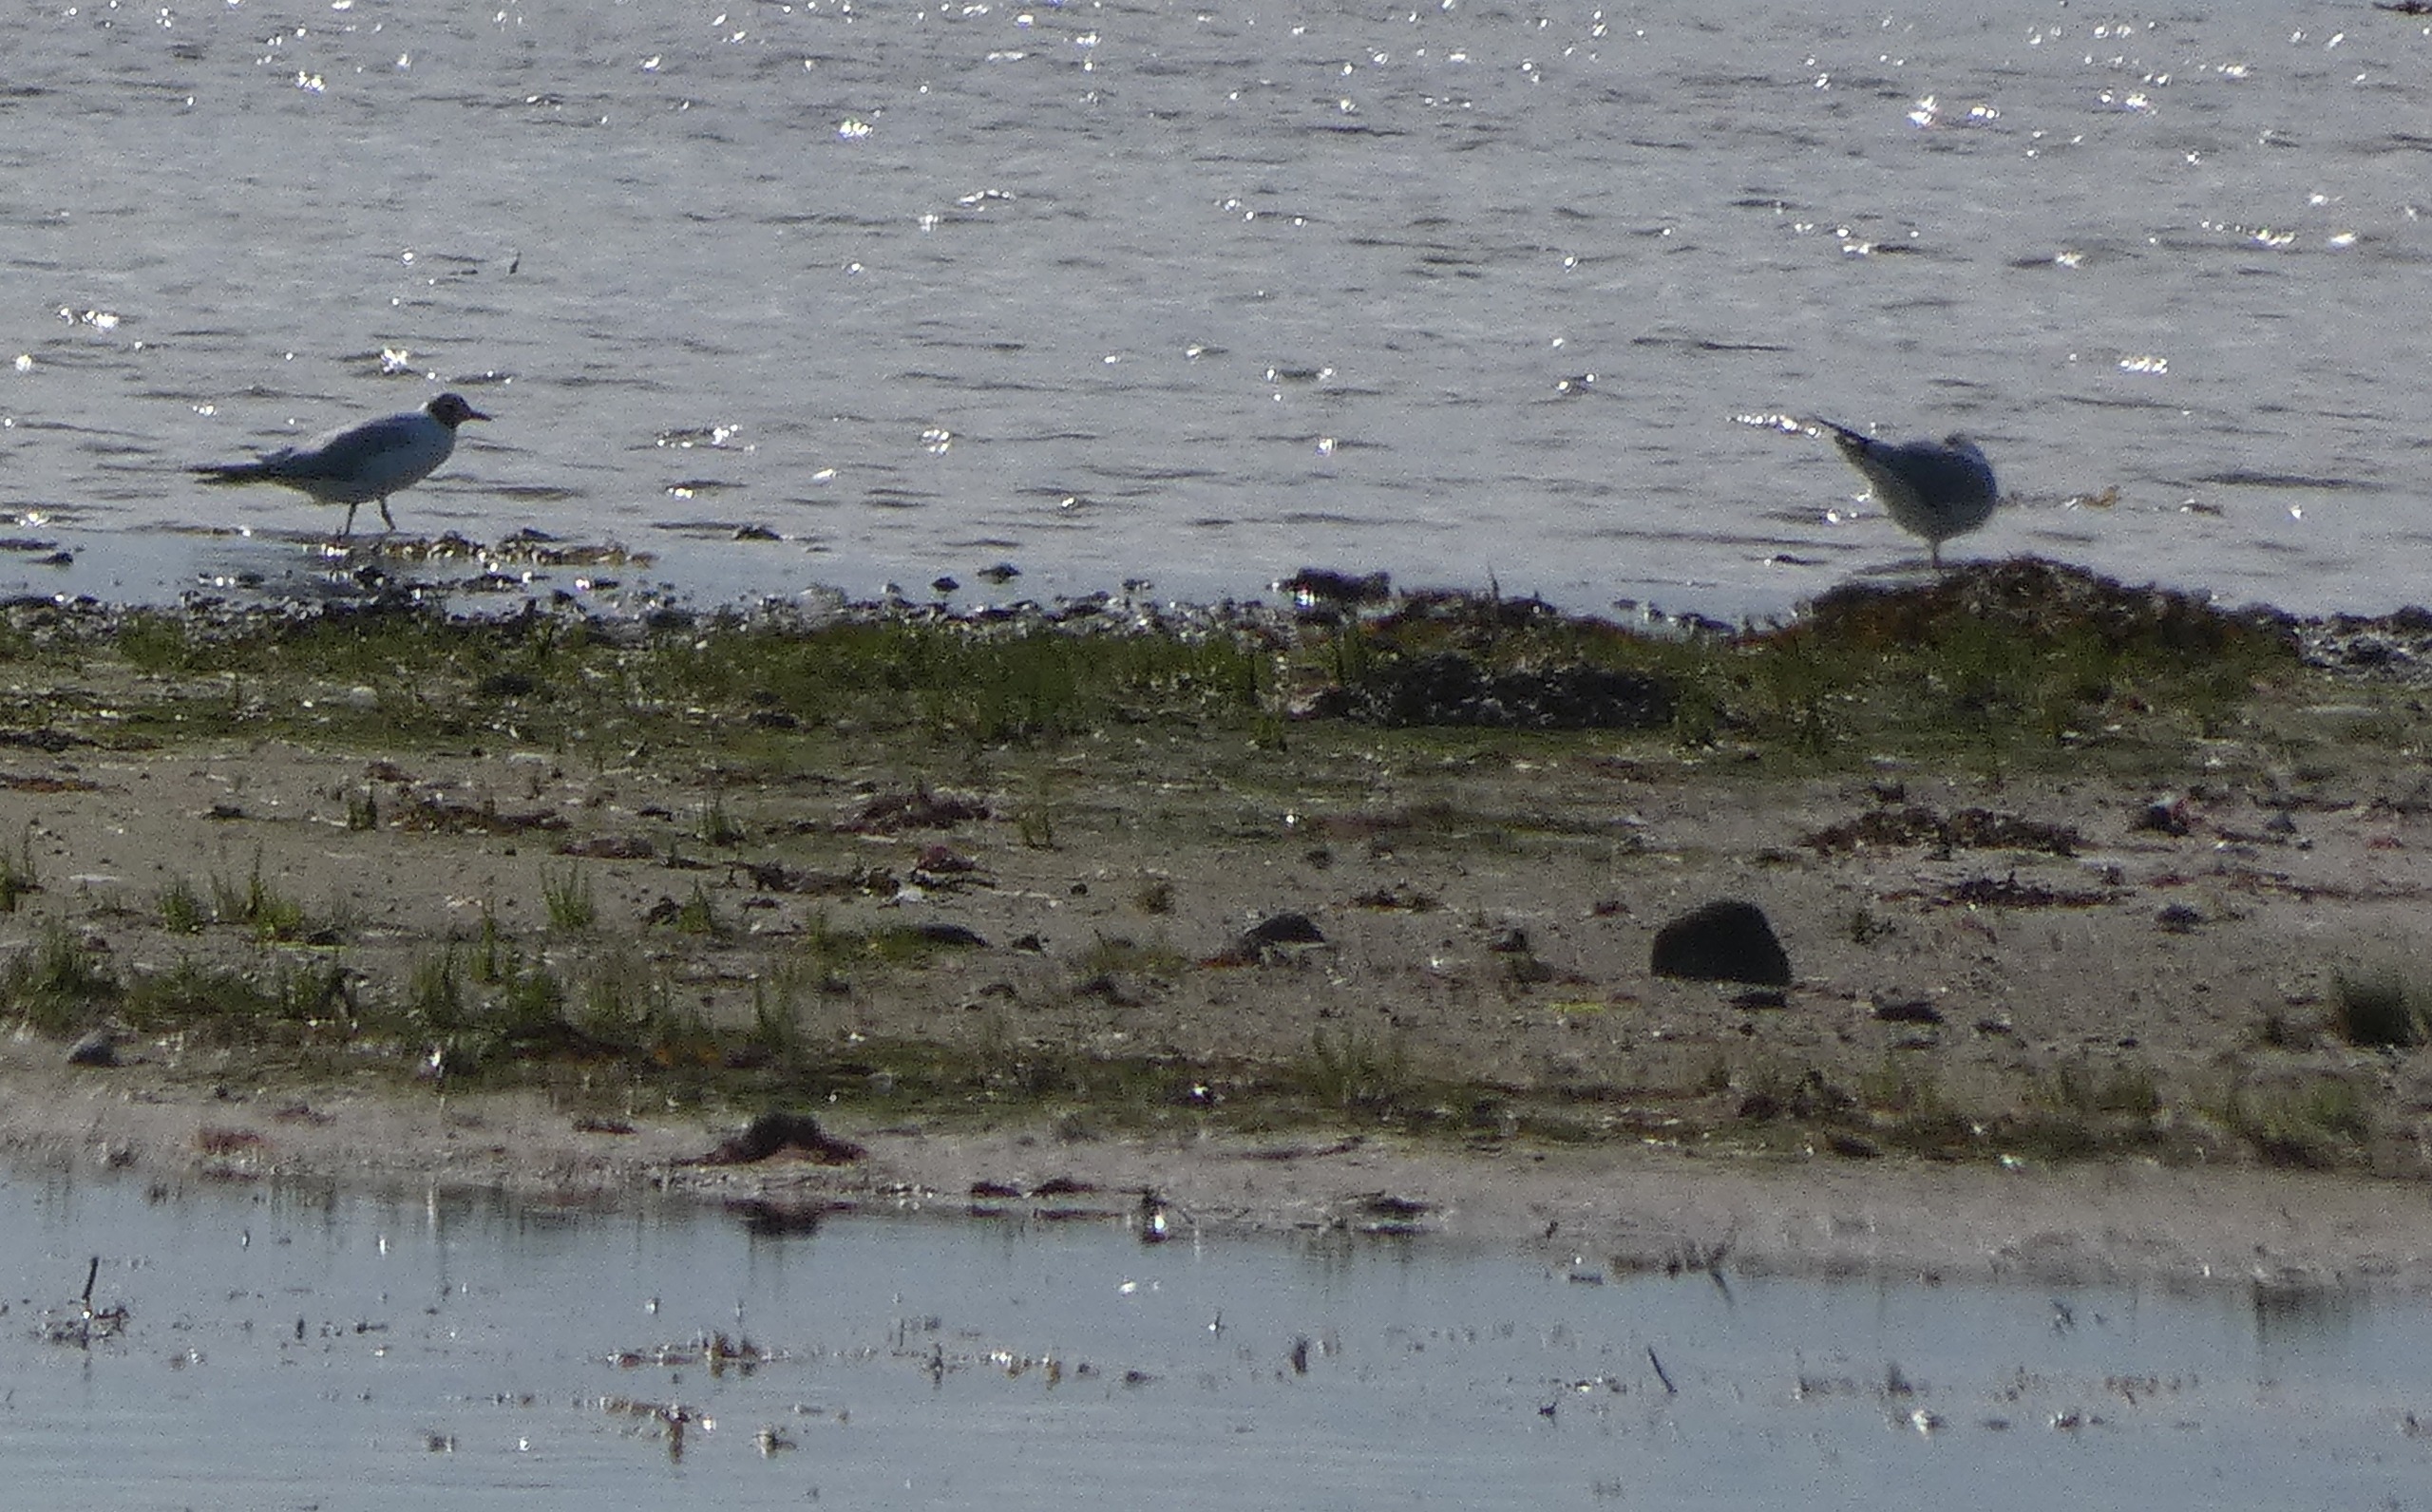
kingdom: Animalia
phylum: Chordata
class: Aves
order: Charadriiformes
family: Laridae
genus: Chroicocephalus
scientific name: Chroicocephalus ridibundus
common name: Hættemåge
